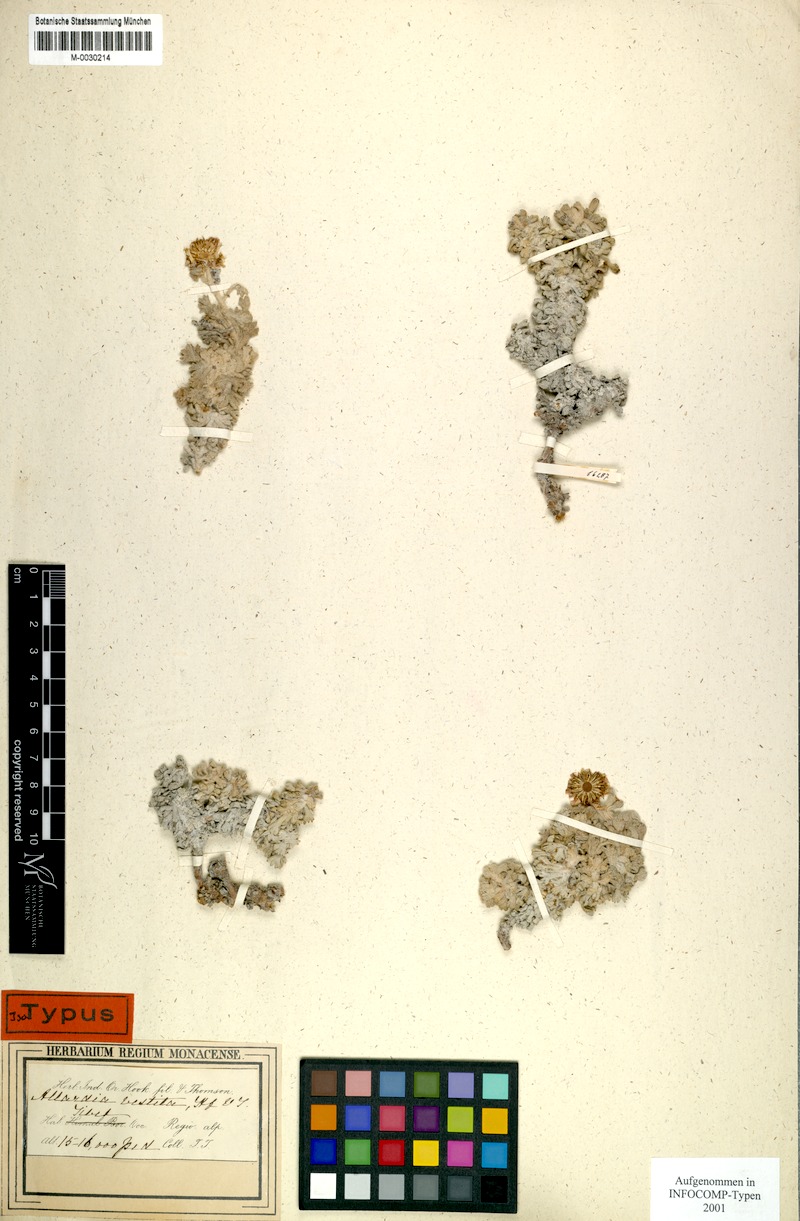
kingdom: Plantae
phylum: Tracheophyta
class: Magnoliopsida
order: Asterales
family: Asteraceae
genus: Allardia
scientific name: Allardia vestita
